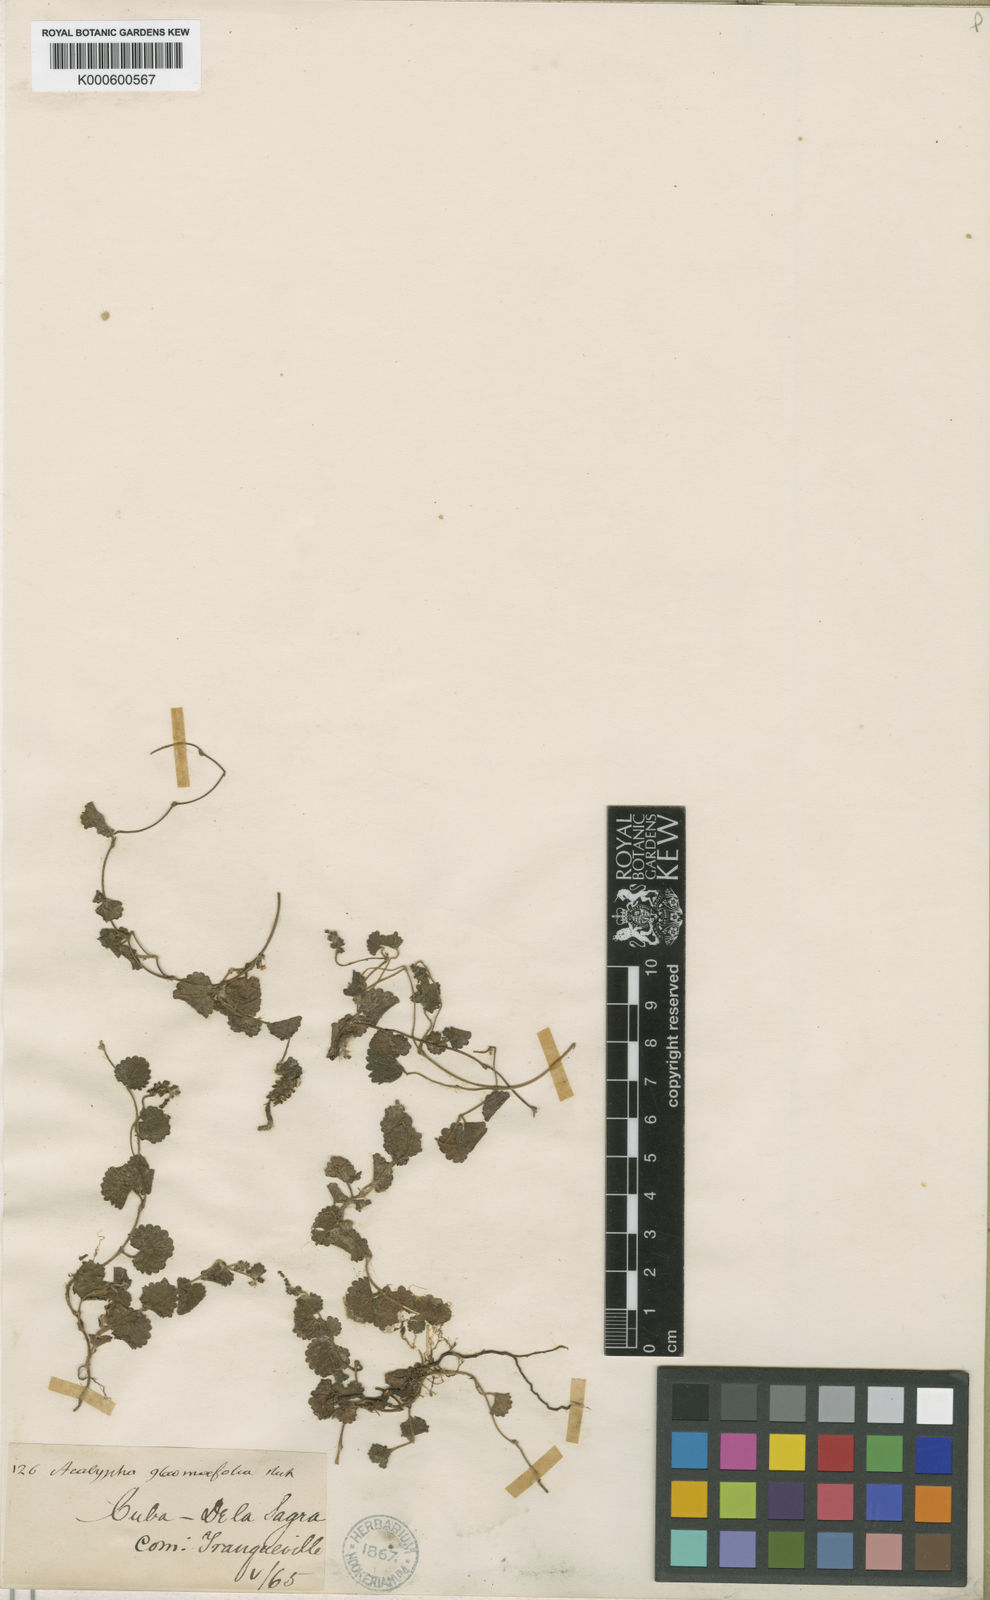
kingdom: Plantae
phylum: Tracheophyta
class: Magnoliopsida
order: Malpighiales
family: Euphorbiaceae
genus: Acalypha
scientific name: Acalypha glechomifolia
